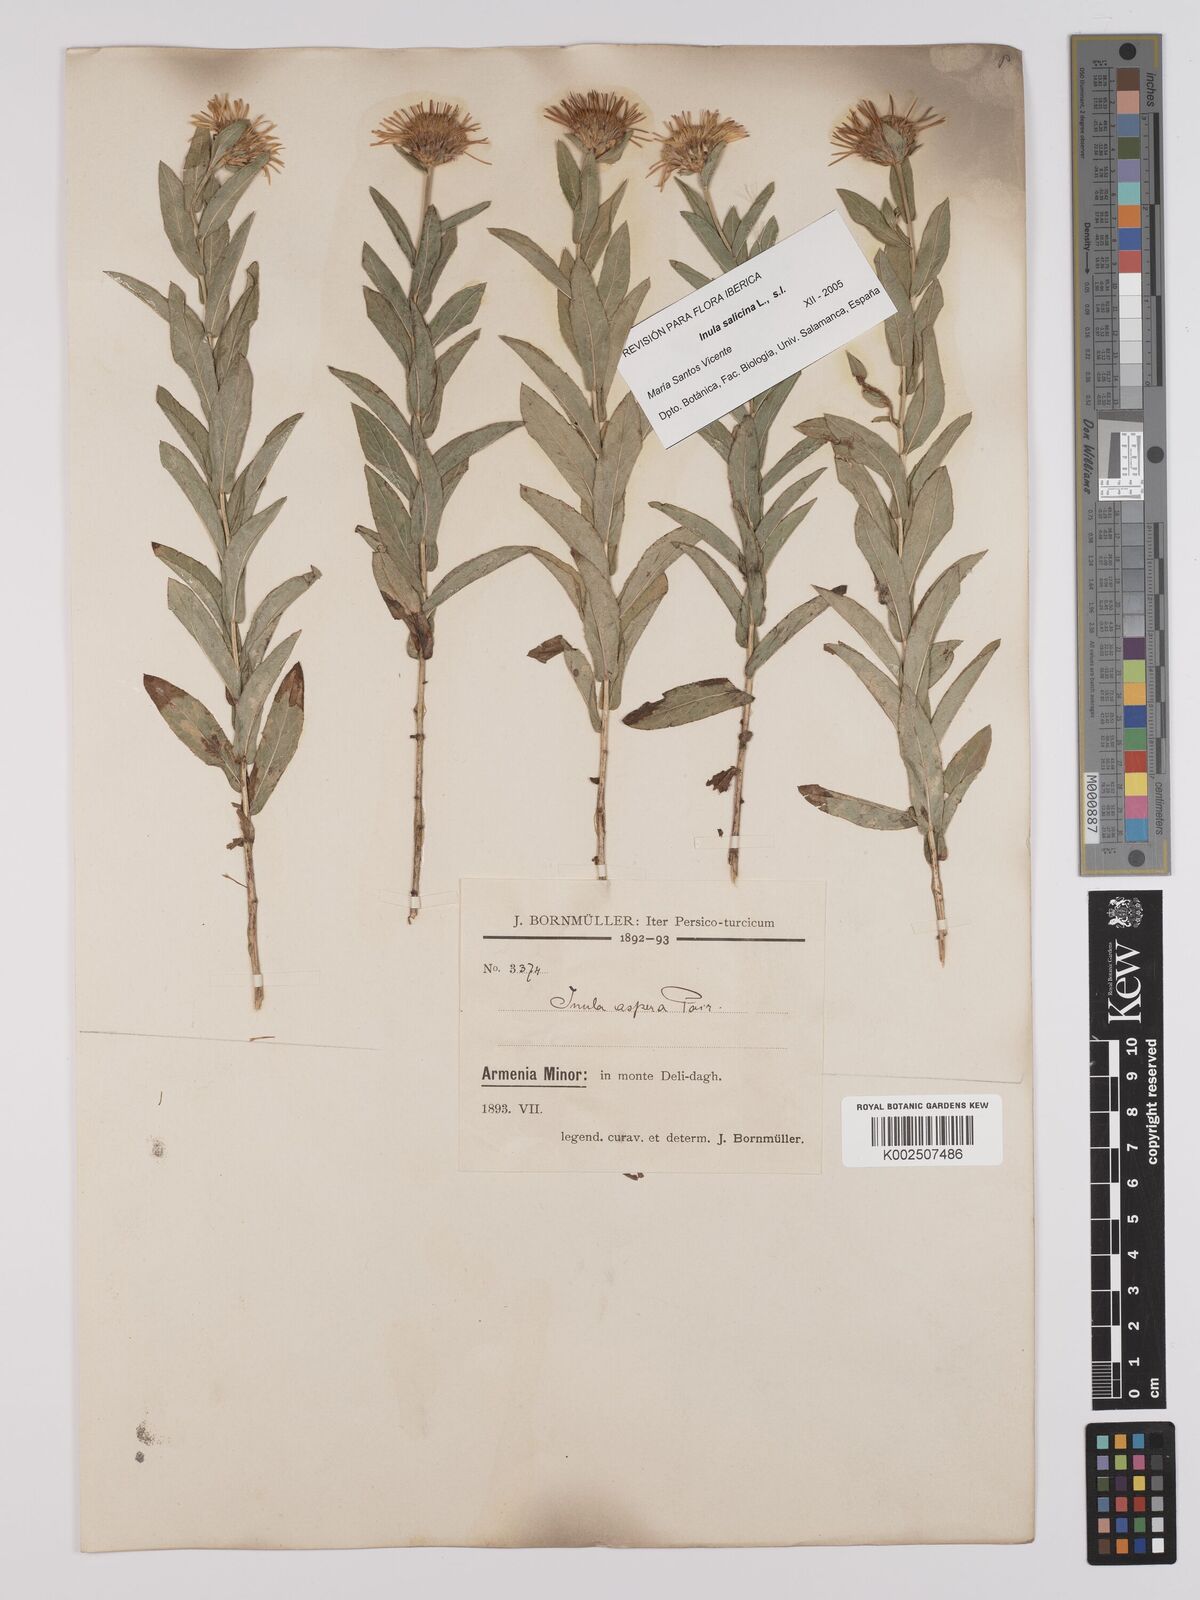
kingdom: Plantae
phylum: Tracheophyta
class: Magnoliopsida
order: Asterales
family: Asteraceae
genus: Pentanema
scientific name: Pentanema salicinum
